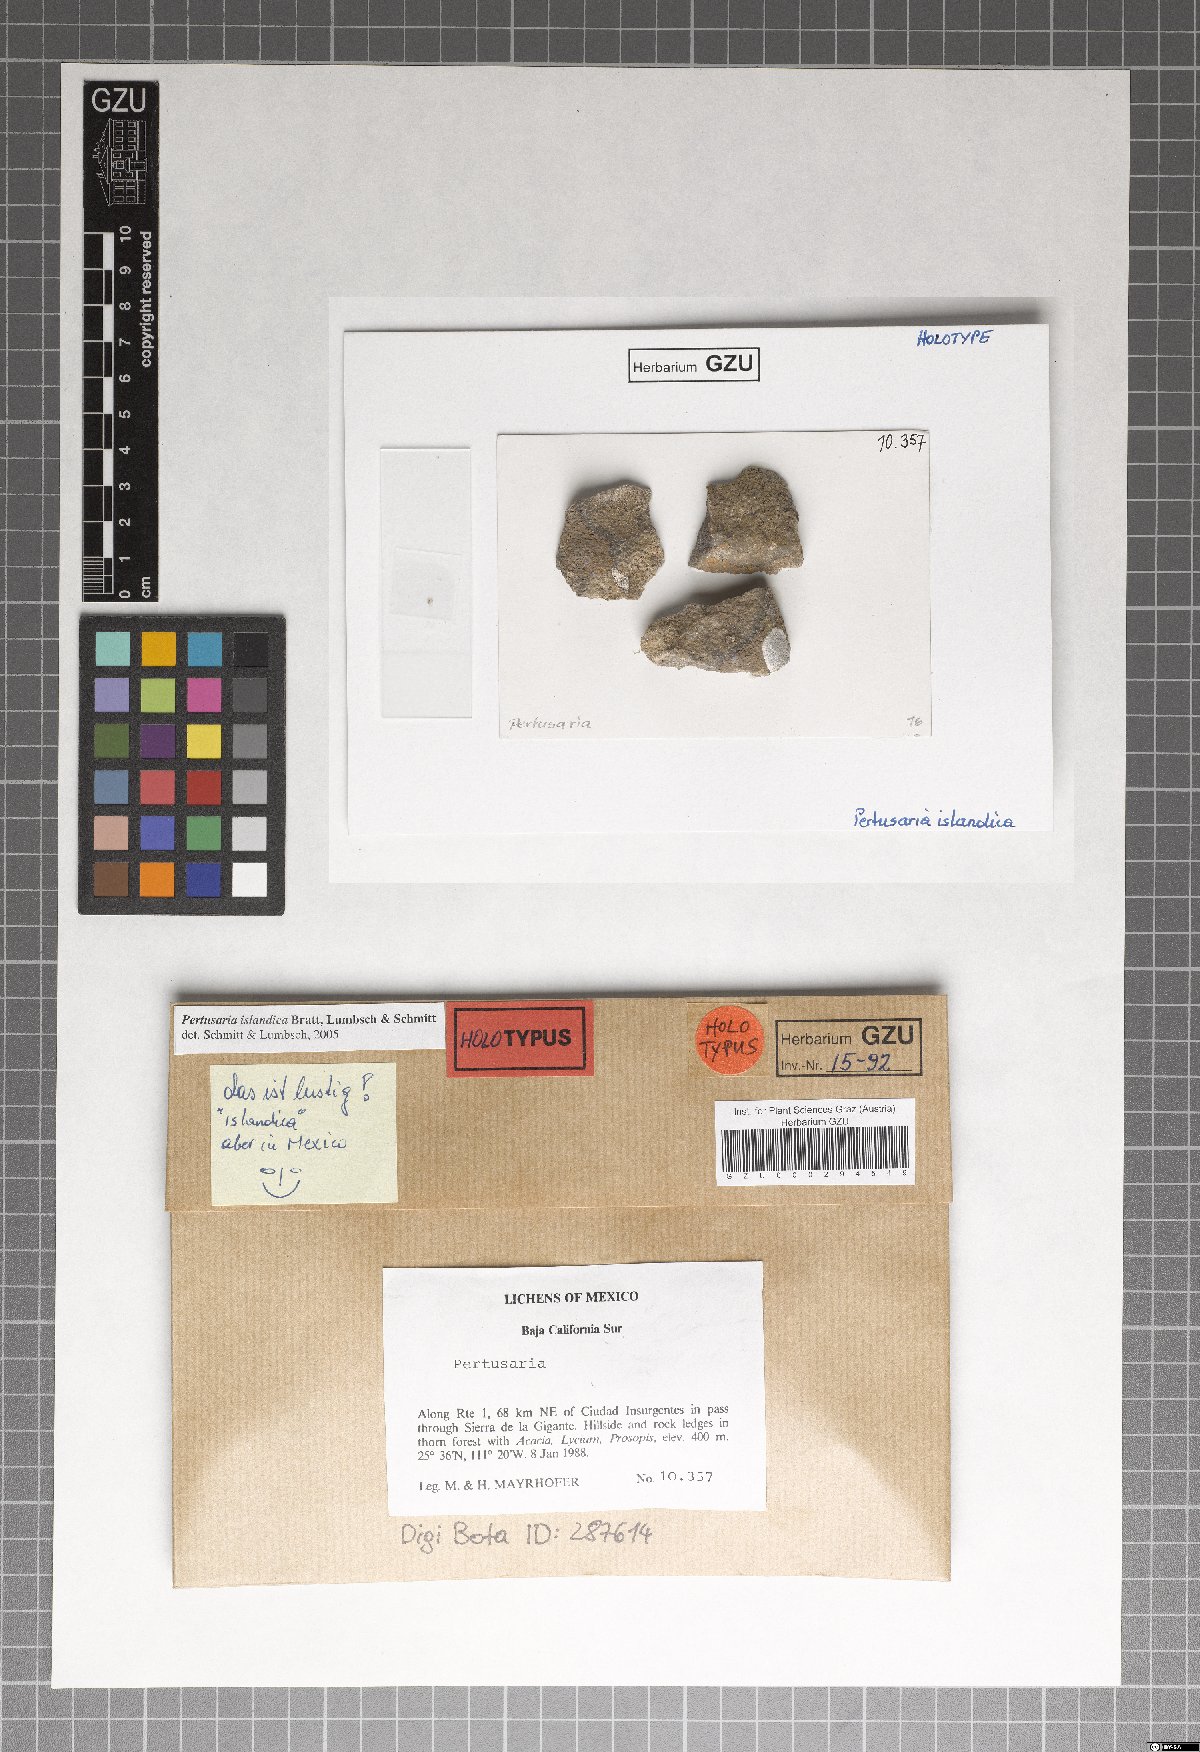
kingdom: Fungi
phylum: Ascomycota
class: Lecanoromycetes
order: Pertusariales
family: Pertusariaceae
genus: Pertusaria
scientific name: Pertusaria islandica
